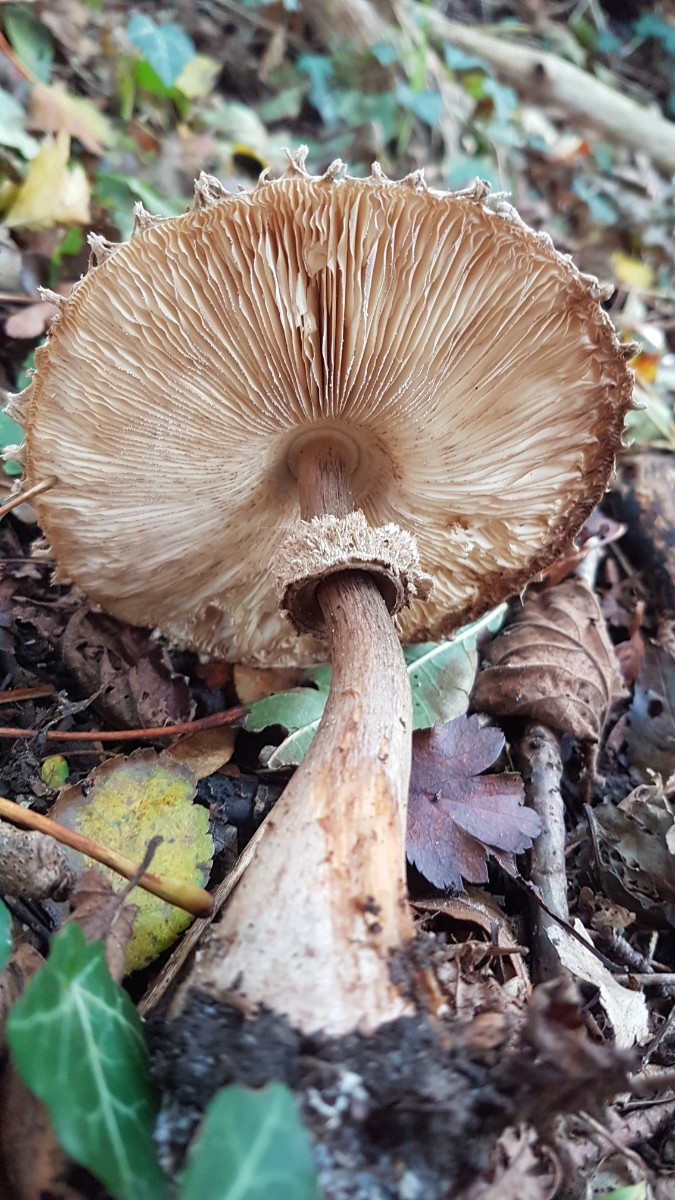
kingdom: Fungi
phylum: Basidiomycota
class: Agaricomycetes
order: Agaricales
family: Agaricaceae
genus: Chlorophyllum
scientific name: Chlorophyllum olivieri
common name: almindelig rabarberhat
